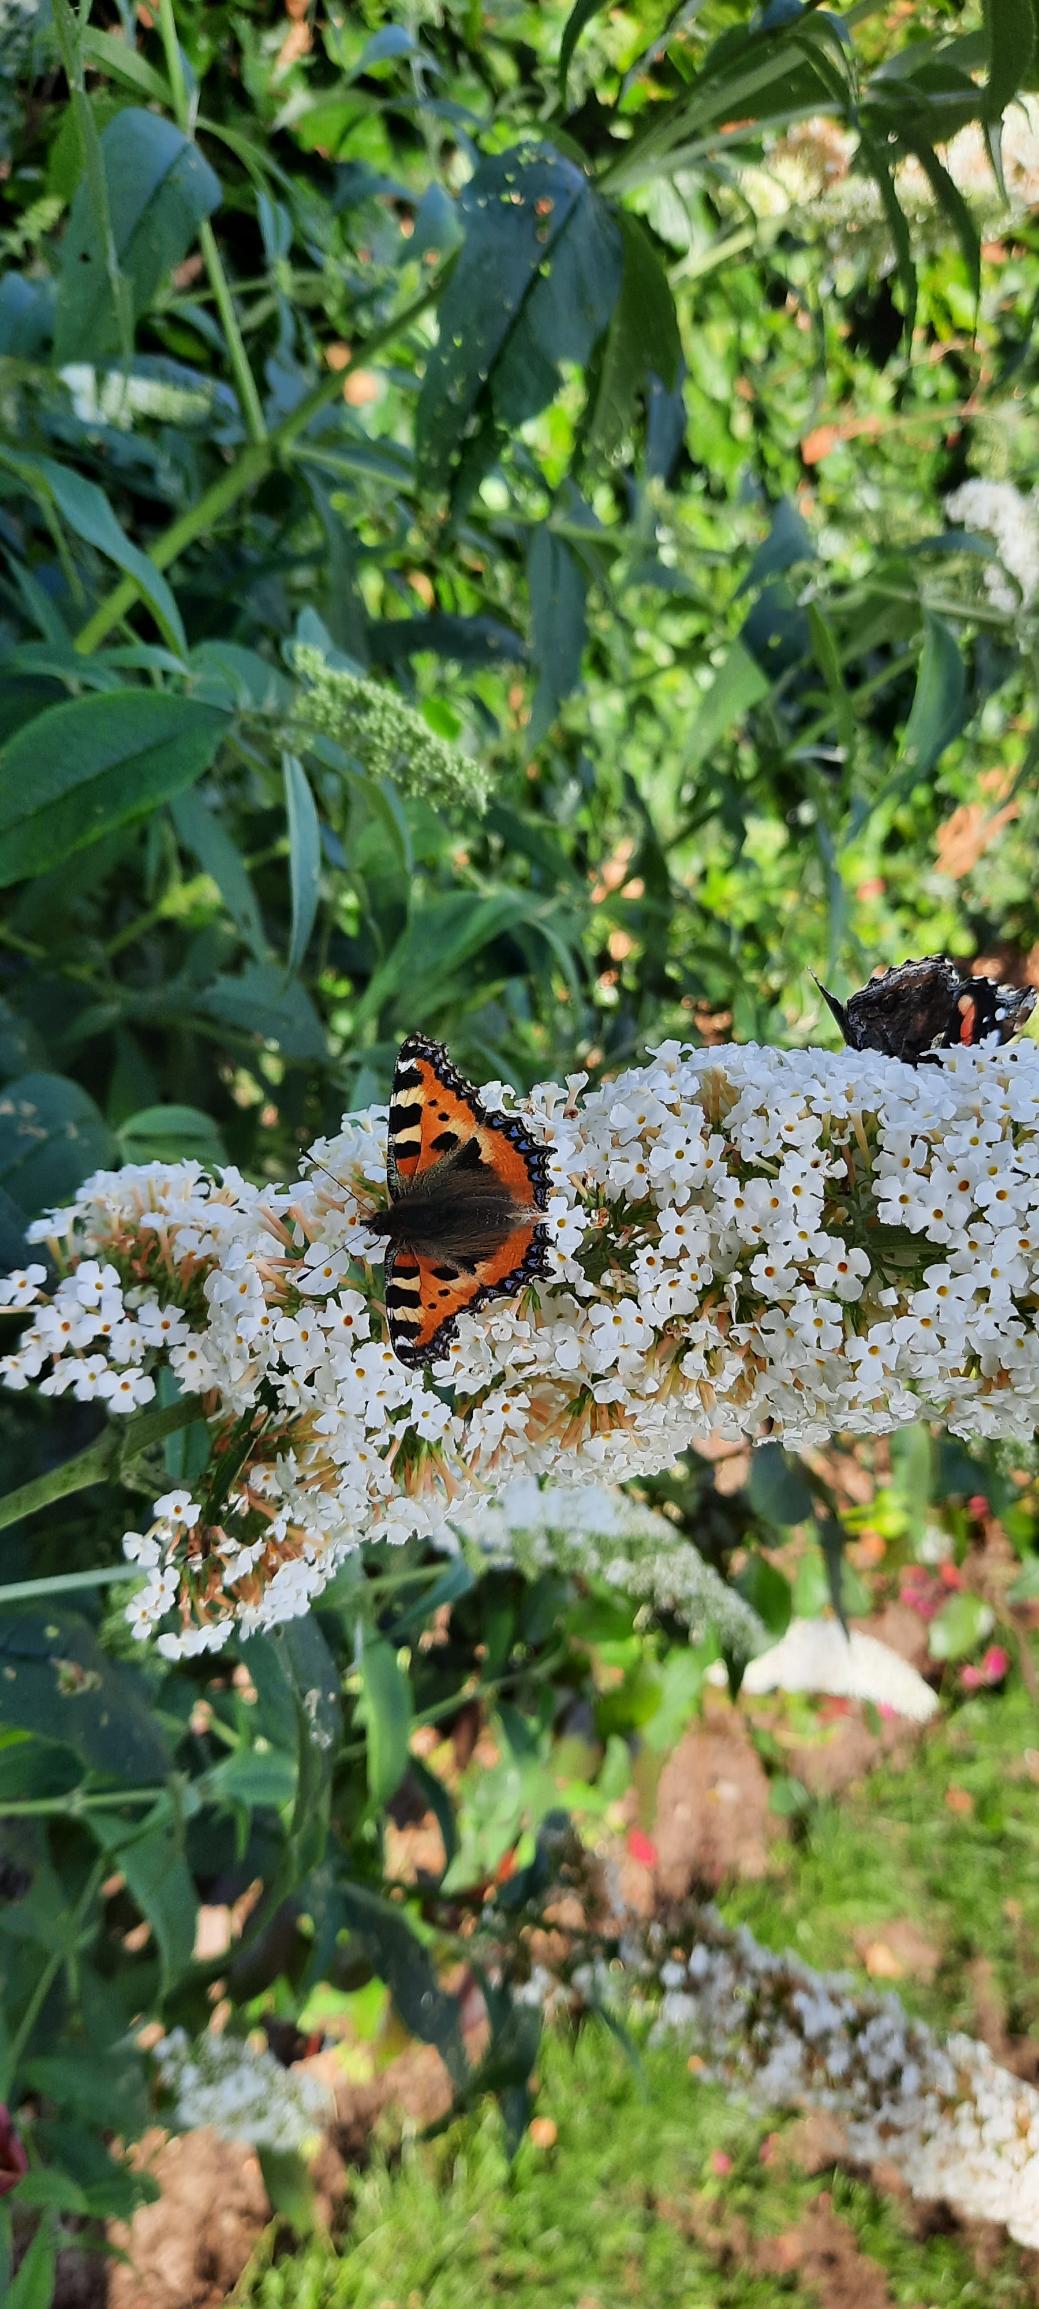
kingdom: Animalia
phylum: Arthropoda
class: Insecta
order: Lepidoptera
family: Nymphalidae
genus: Aglais
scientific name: Aglais urticae
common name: Nældens takvinge
